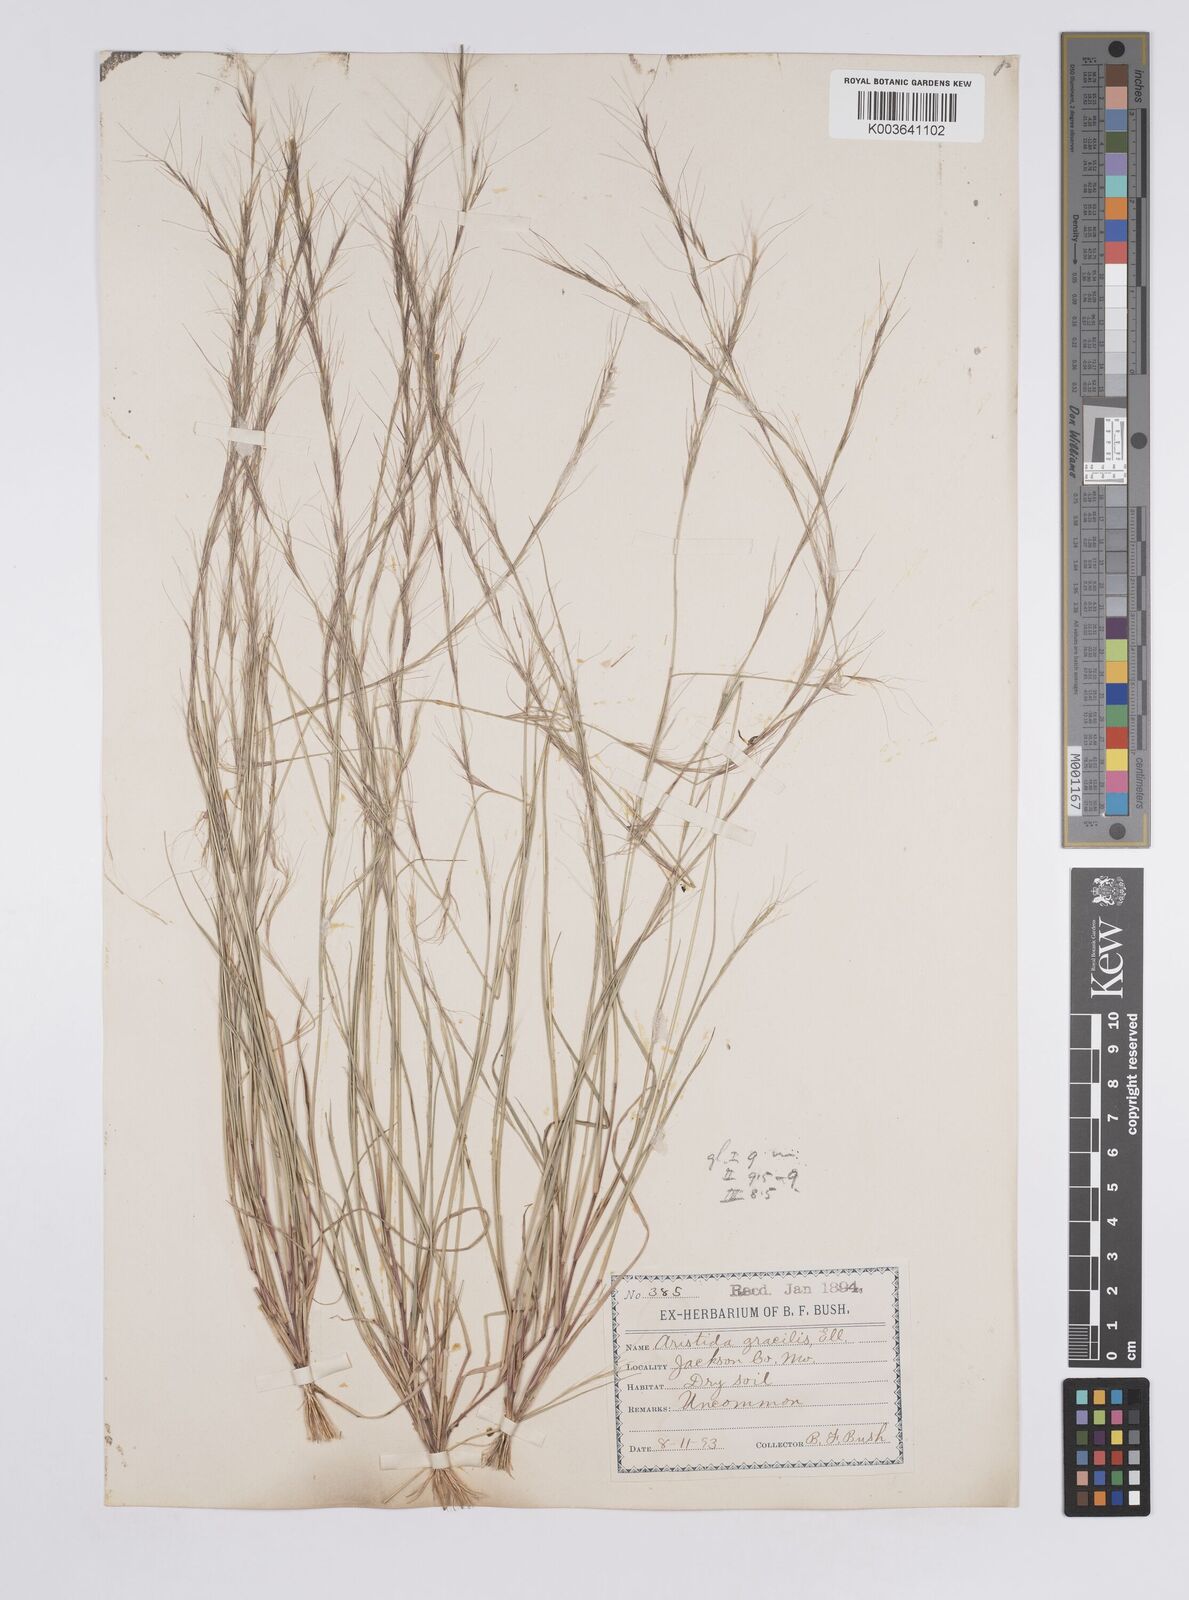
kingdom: Plantae
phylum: Tracheophyta
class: Liliopsida
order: Poales
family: Poaceae
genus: Aristida
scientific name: Aristida purpurascens
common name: Arrow-feather
